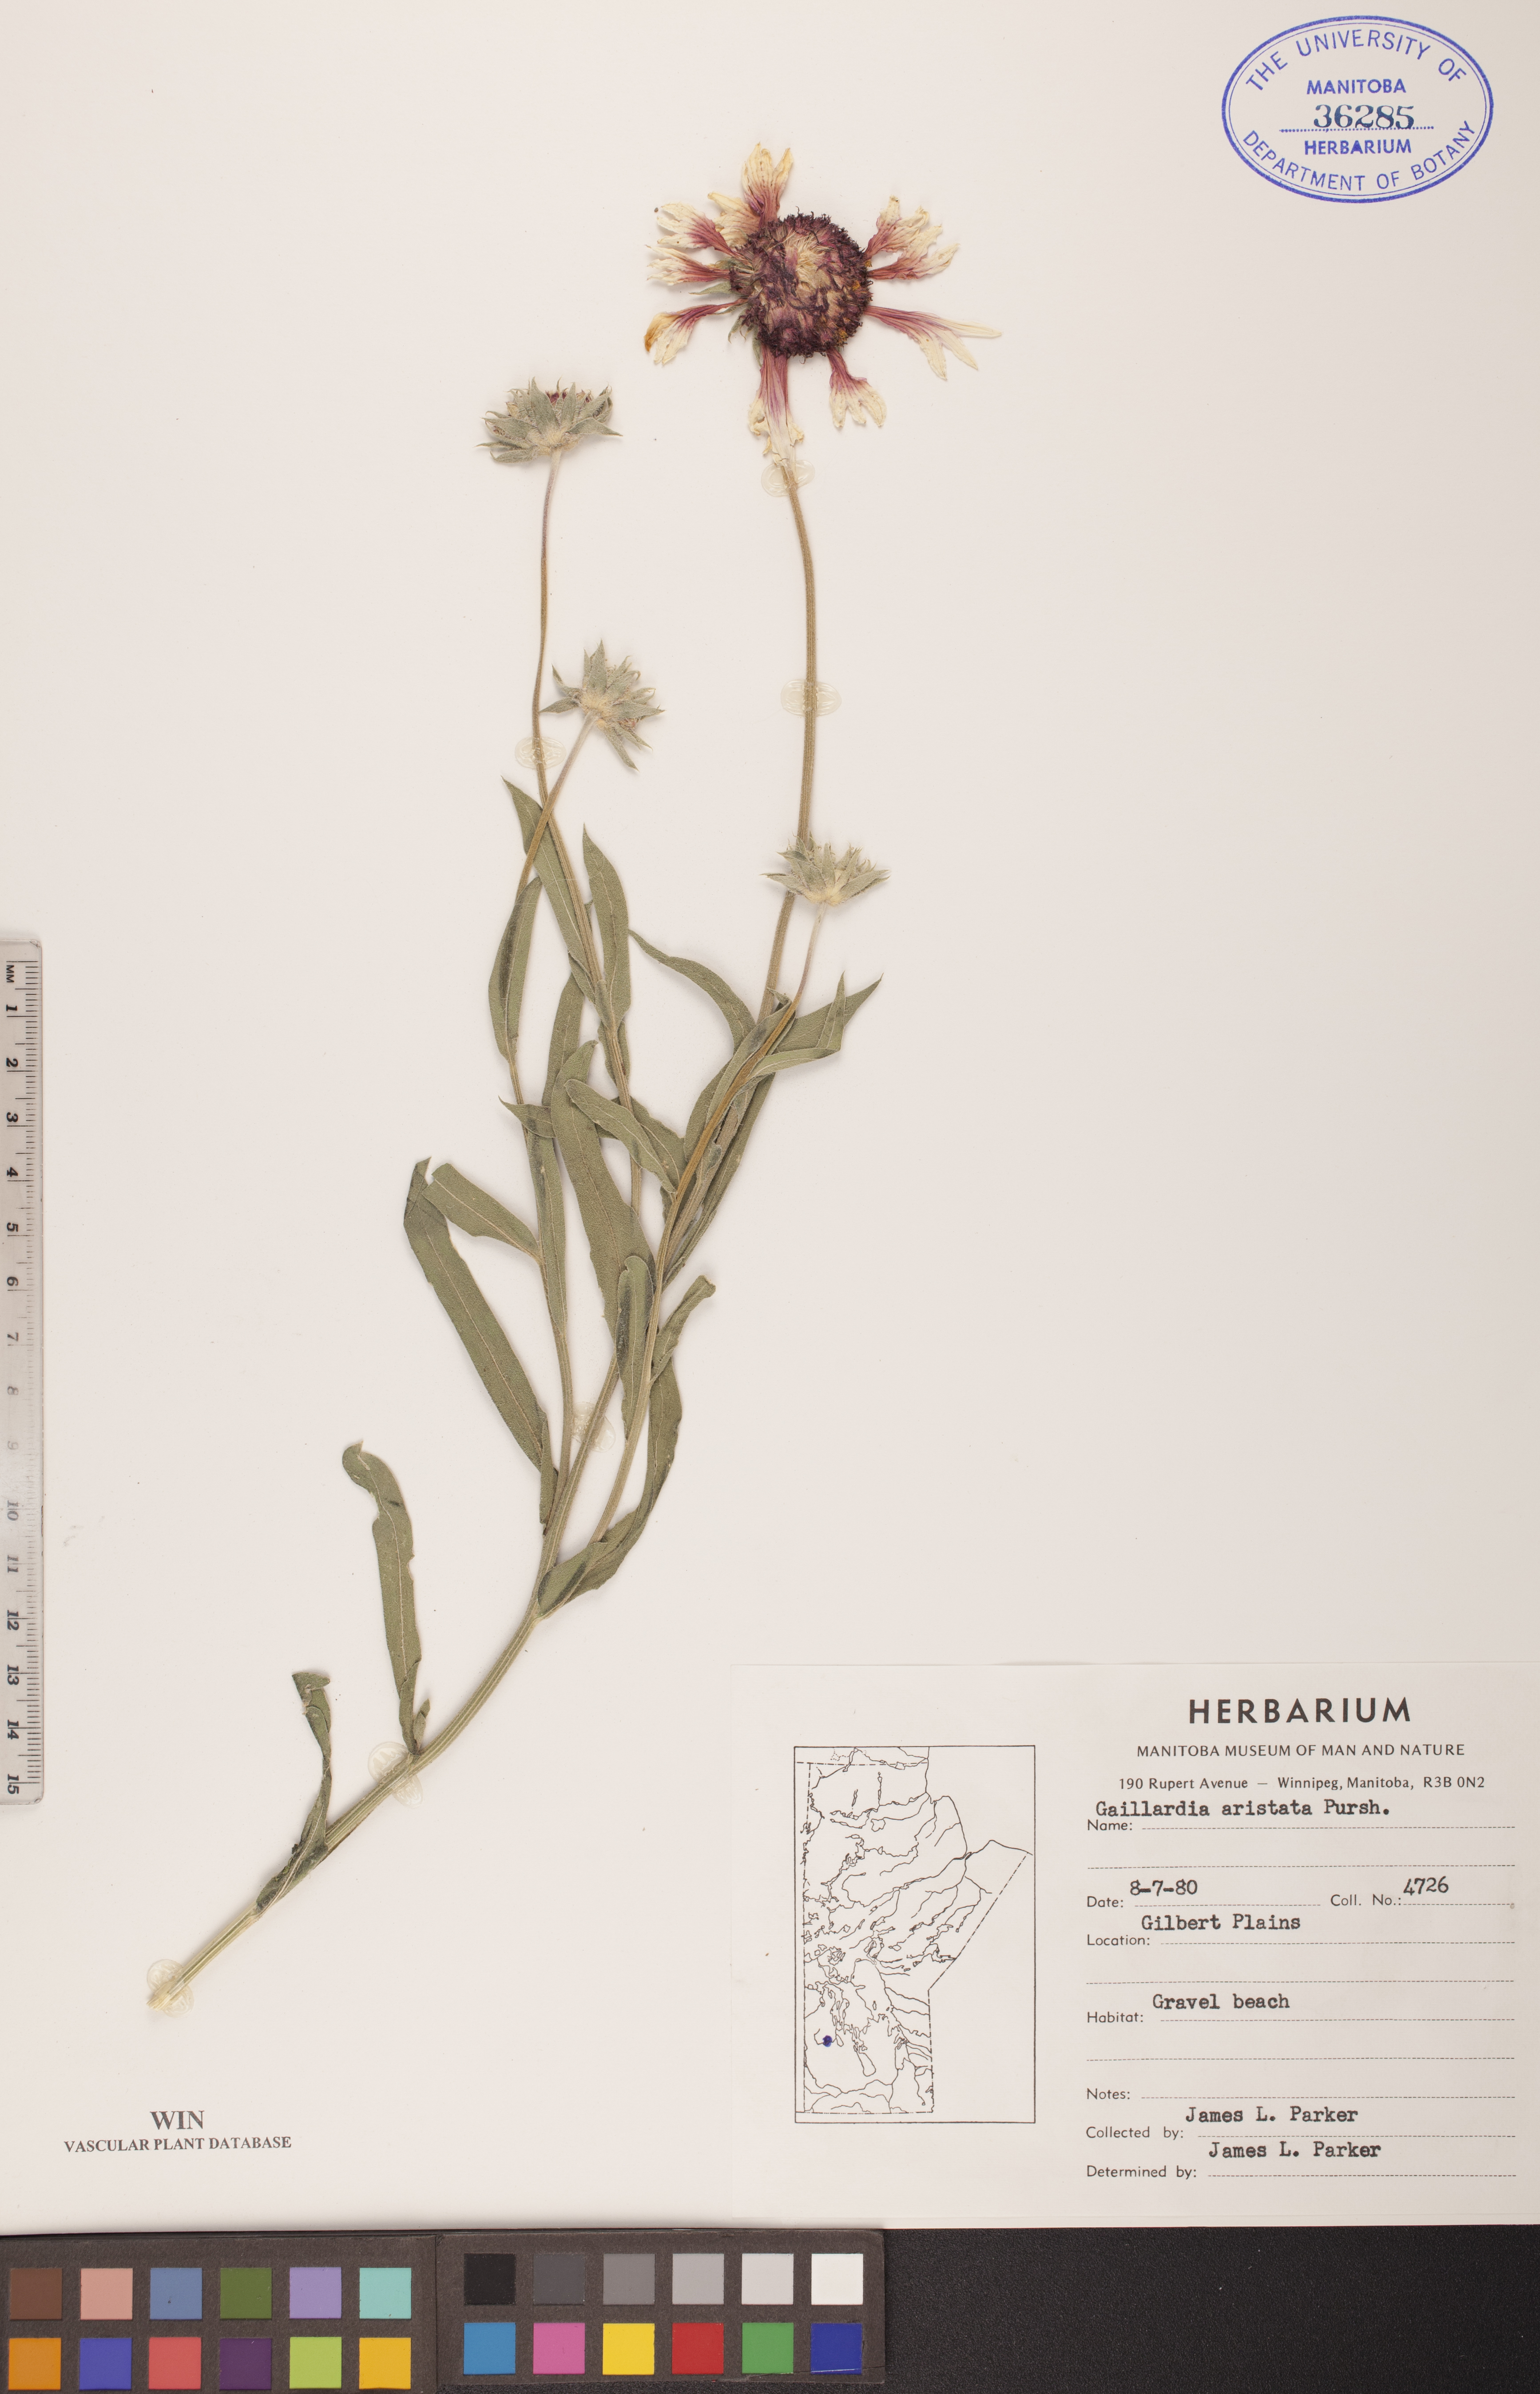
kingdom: Plantae
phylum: Tracheophyta
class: Magnoliopsida
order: Asterales
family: Asteraceae
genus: Gaillardia
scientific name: Gaillardia aristata
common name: Blanket-flower
